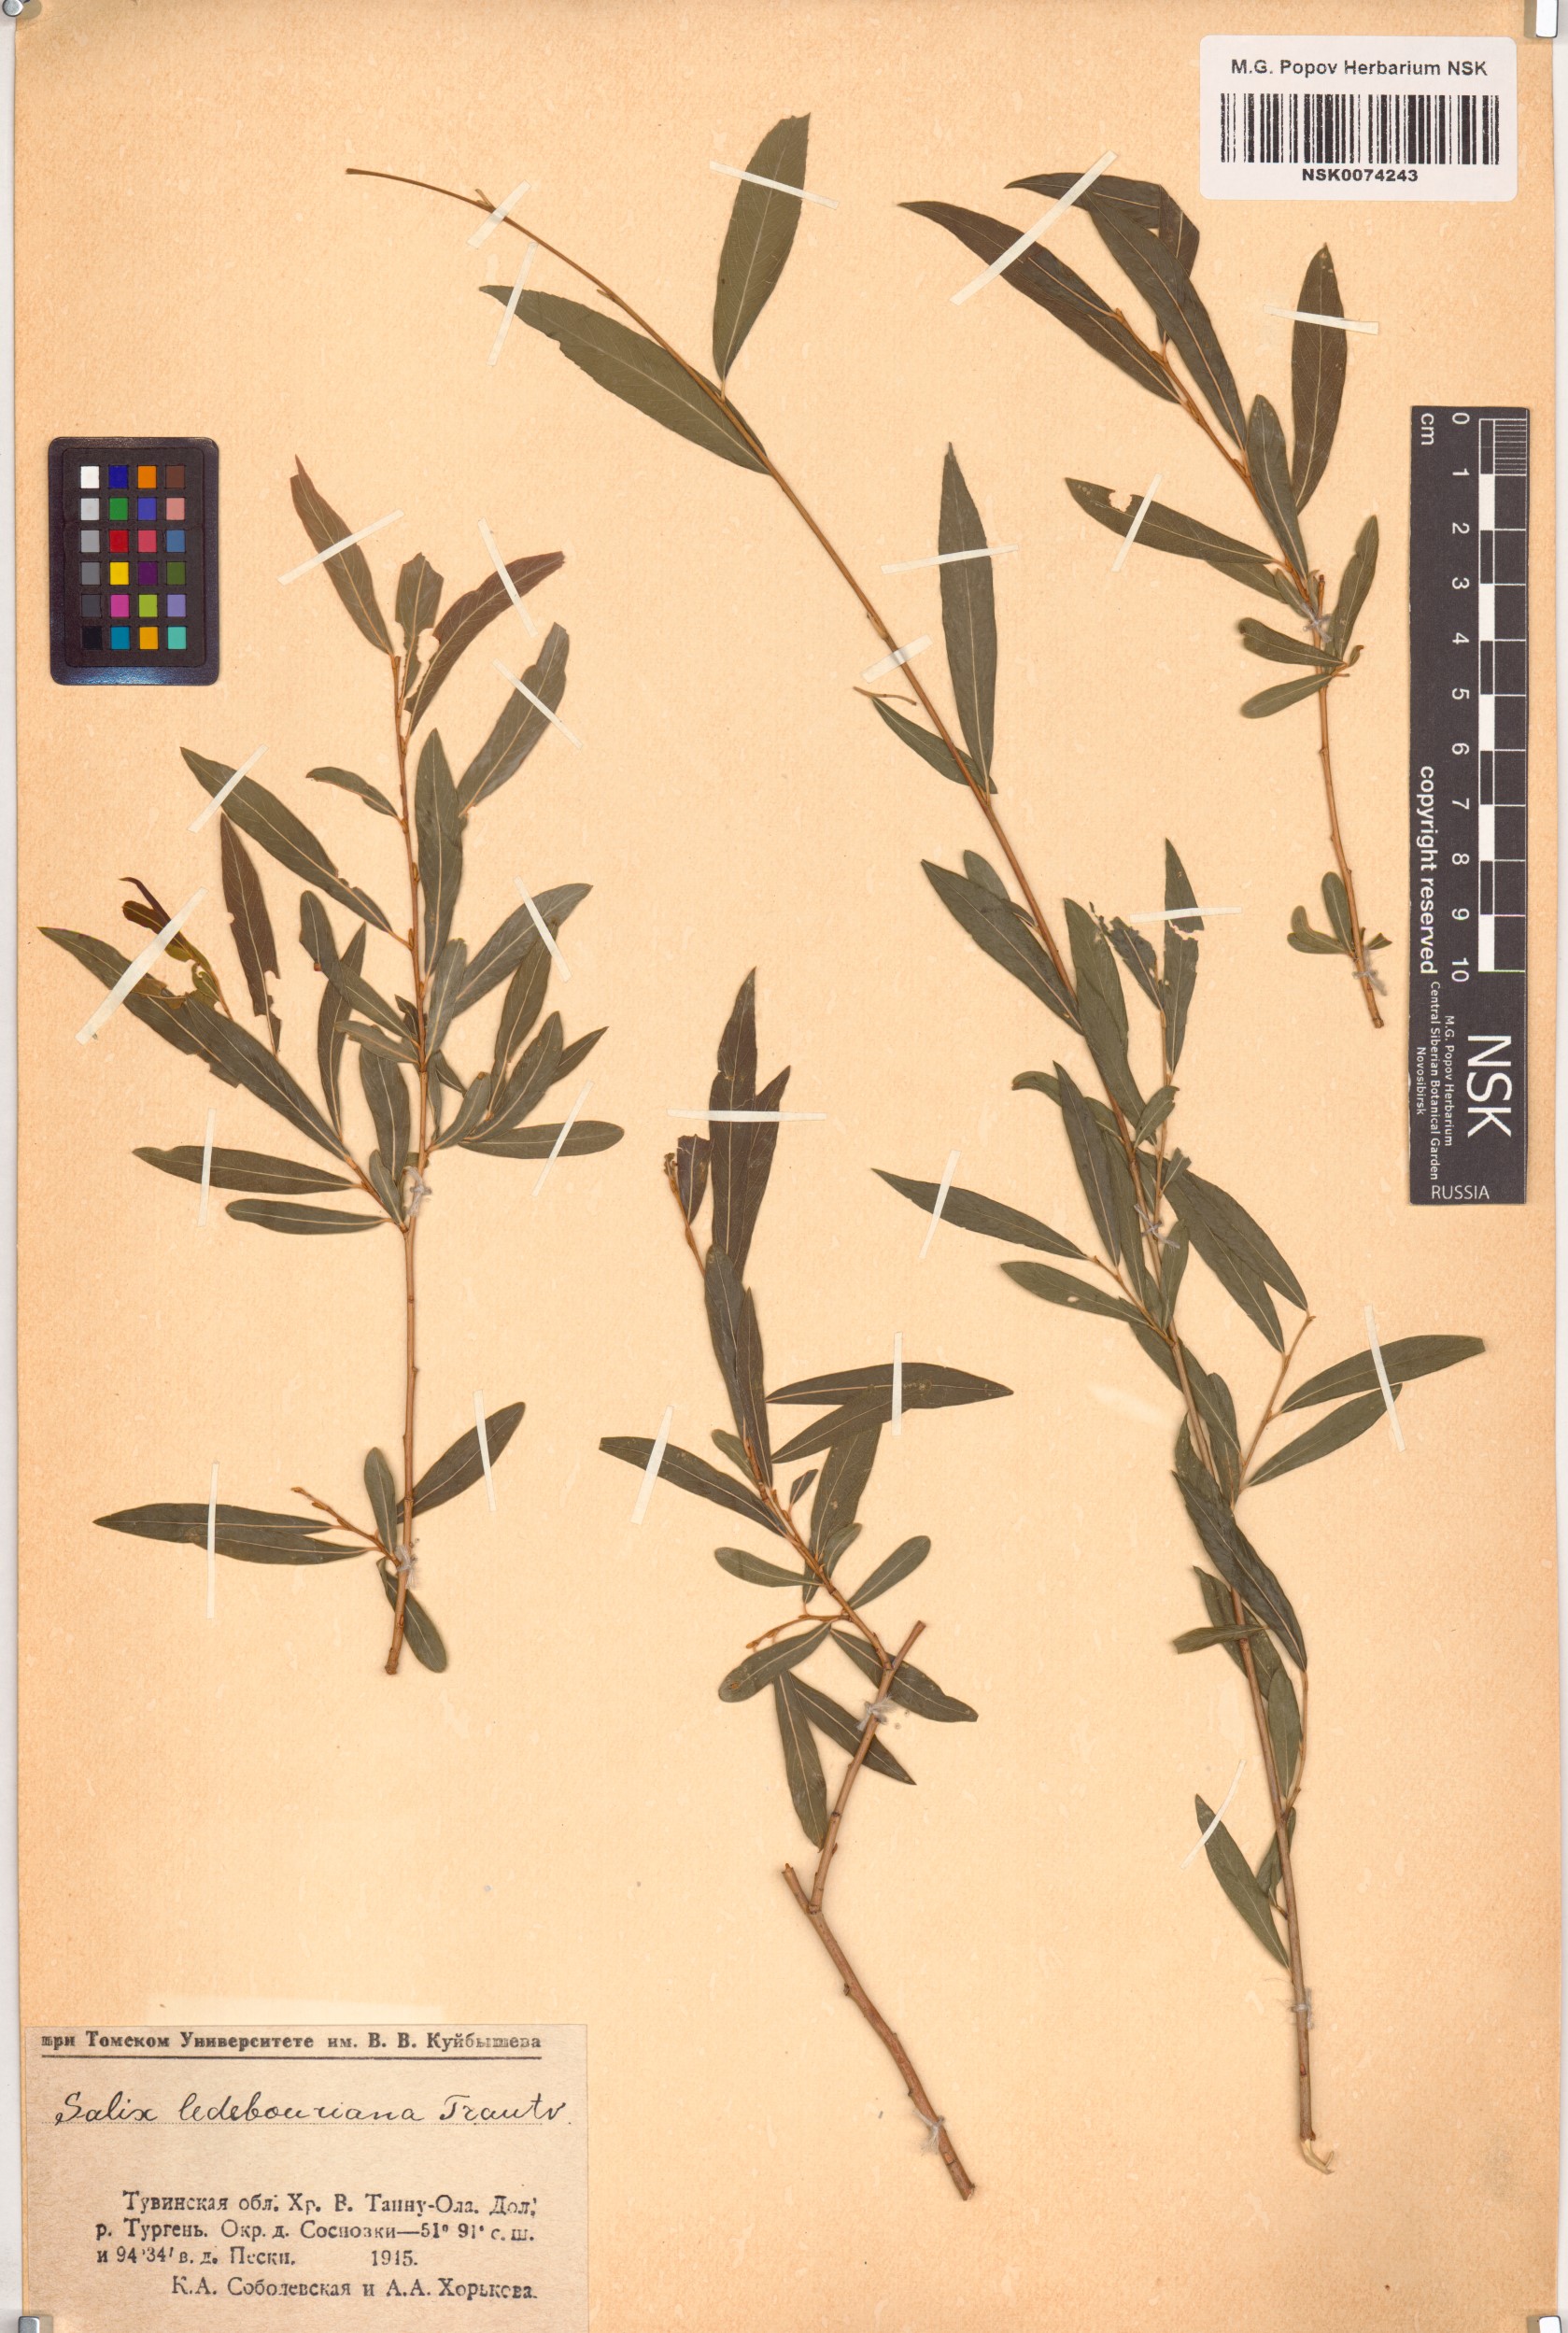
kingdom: Plantae
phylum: Tracheophyta
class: Magnoliopsida
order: Malpighiales
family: Salicaceae
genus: Salix
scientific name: Salix ledebouriana
